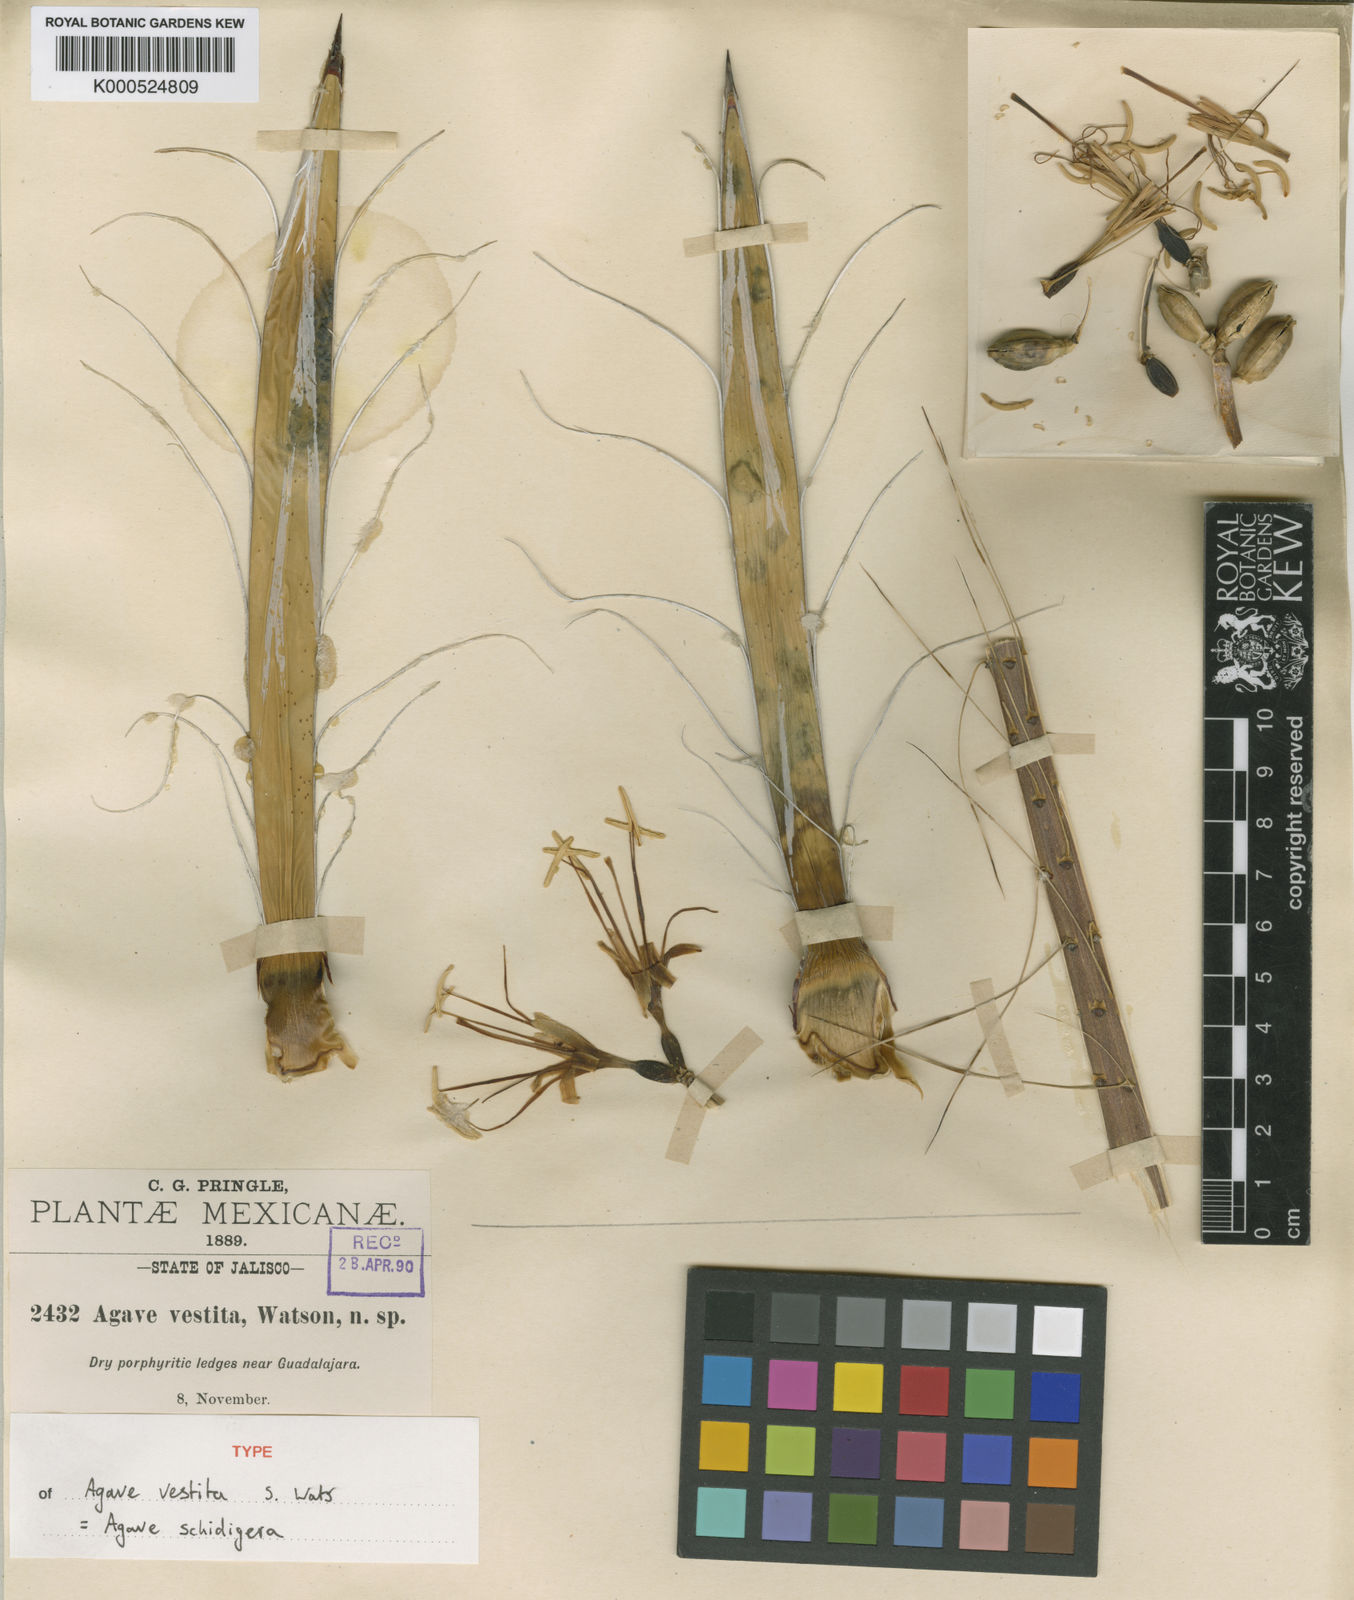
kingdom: Plantae
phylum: Tracheophyta
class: Liliopsida
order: Asparagales
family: Asparagaceae
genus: Agave
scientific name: Agave schidigera
